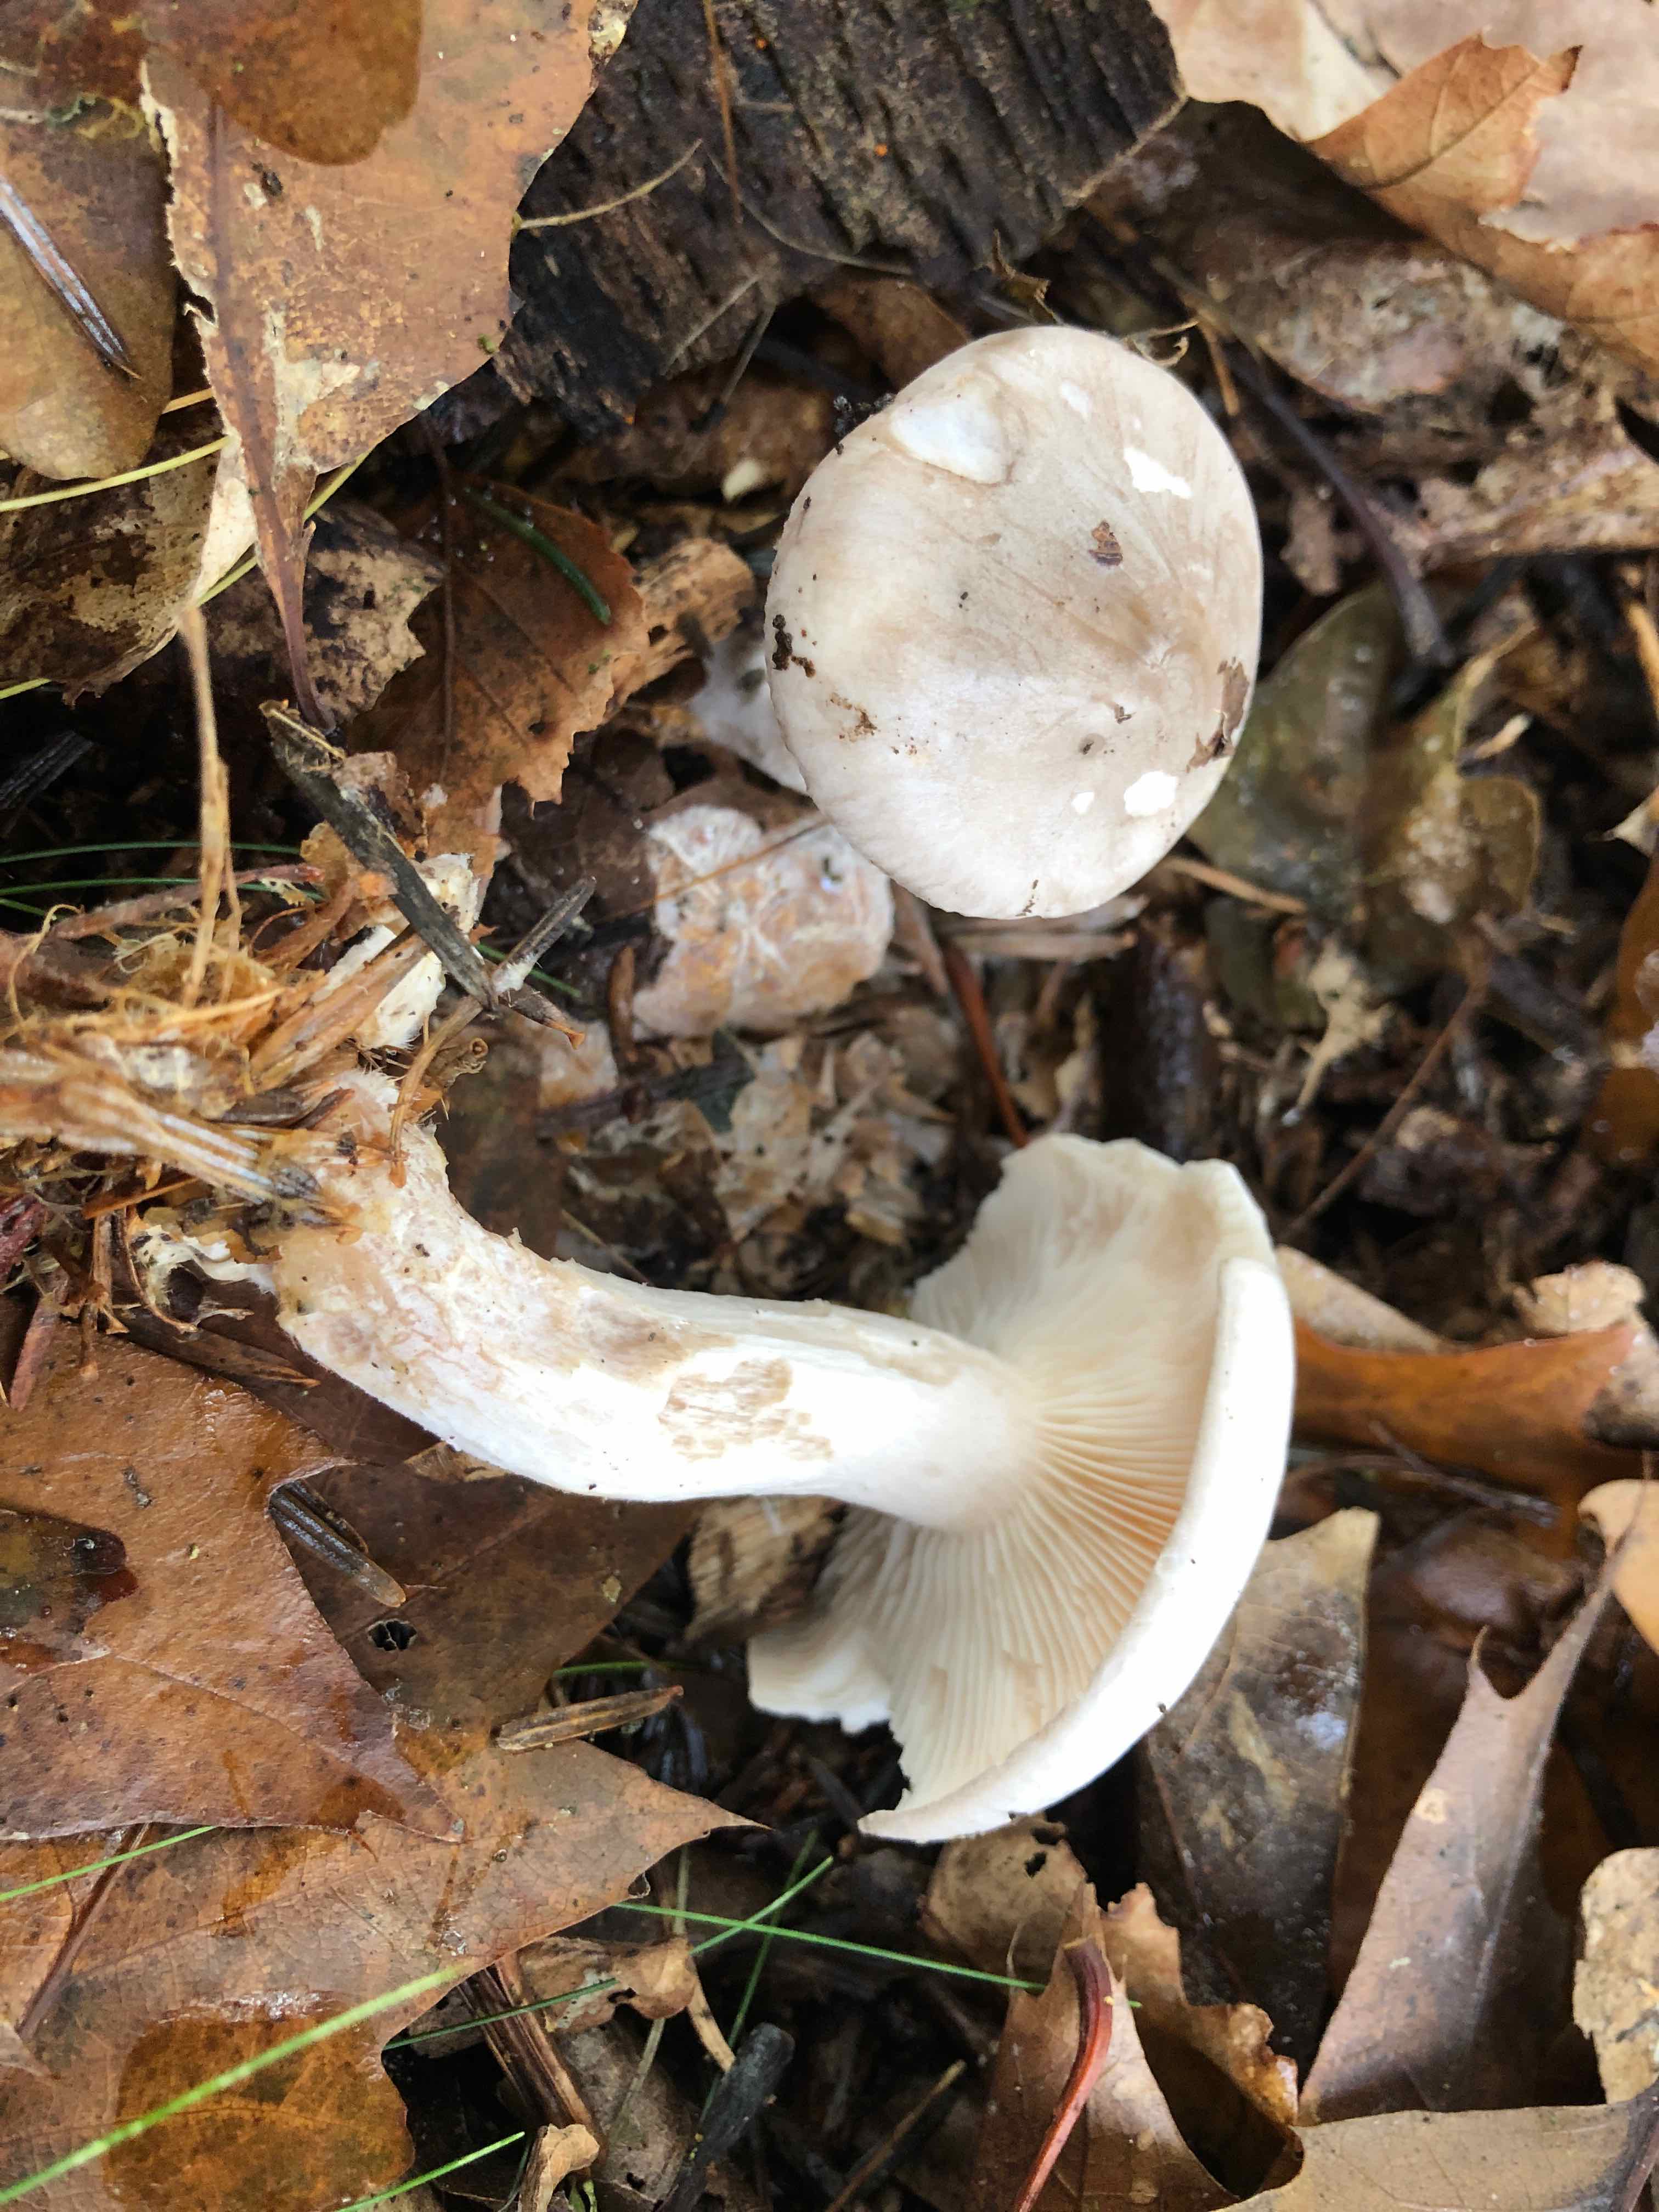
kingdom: Fungi
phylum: Basidiomycota
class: Agaricomycetes
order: Agaricales
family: Tricholomataceae
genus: Clitocybe
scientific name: Clitocybe nebularis
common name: tåge-tragthat
